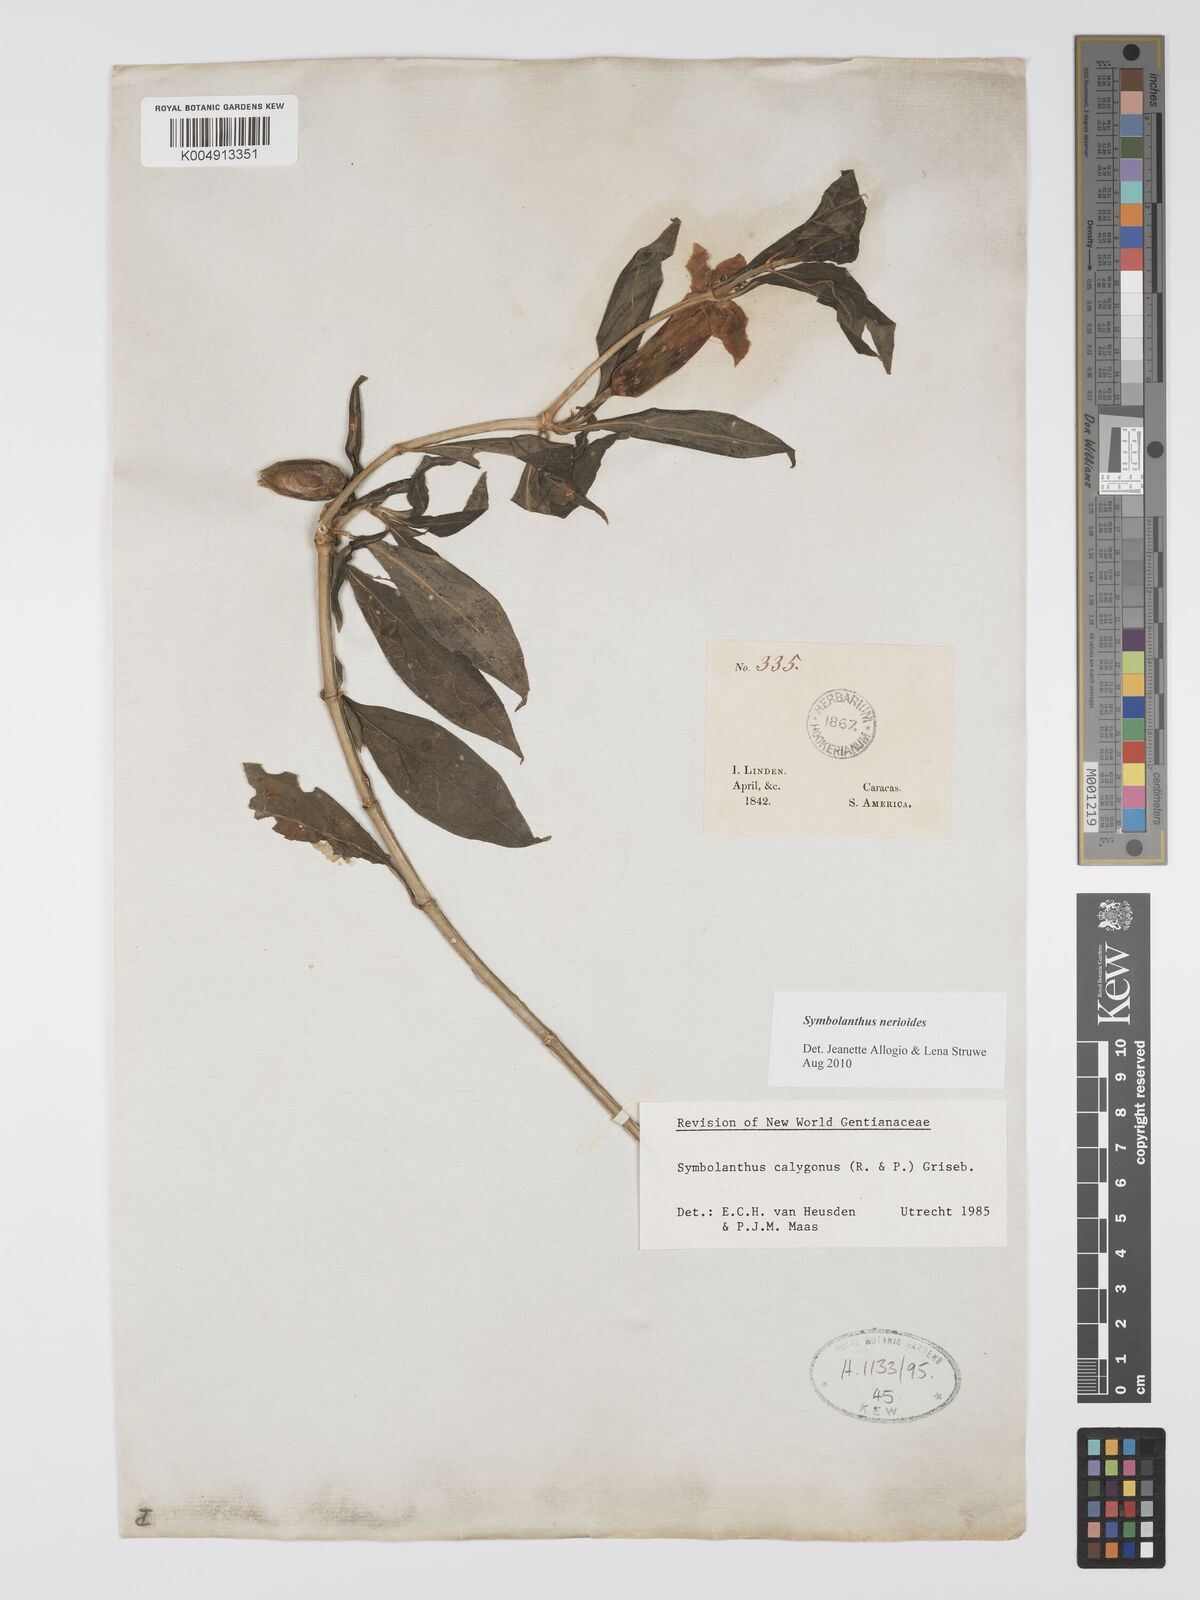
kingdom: Plantae
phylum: Tracheophyta
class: Magnoliopsida
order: Gentianales
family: Gentianaceae
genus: Symbolanthus
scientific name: Symbolanthus anomalus
